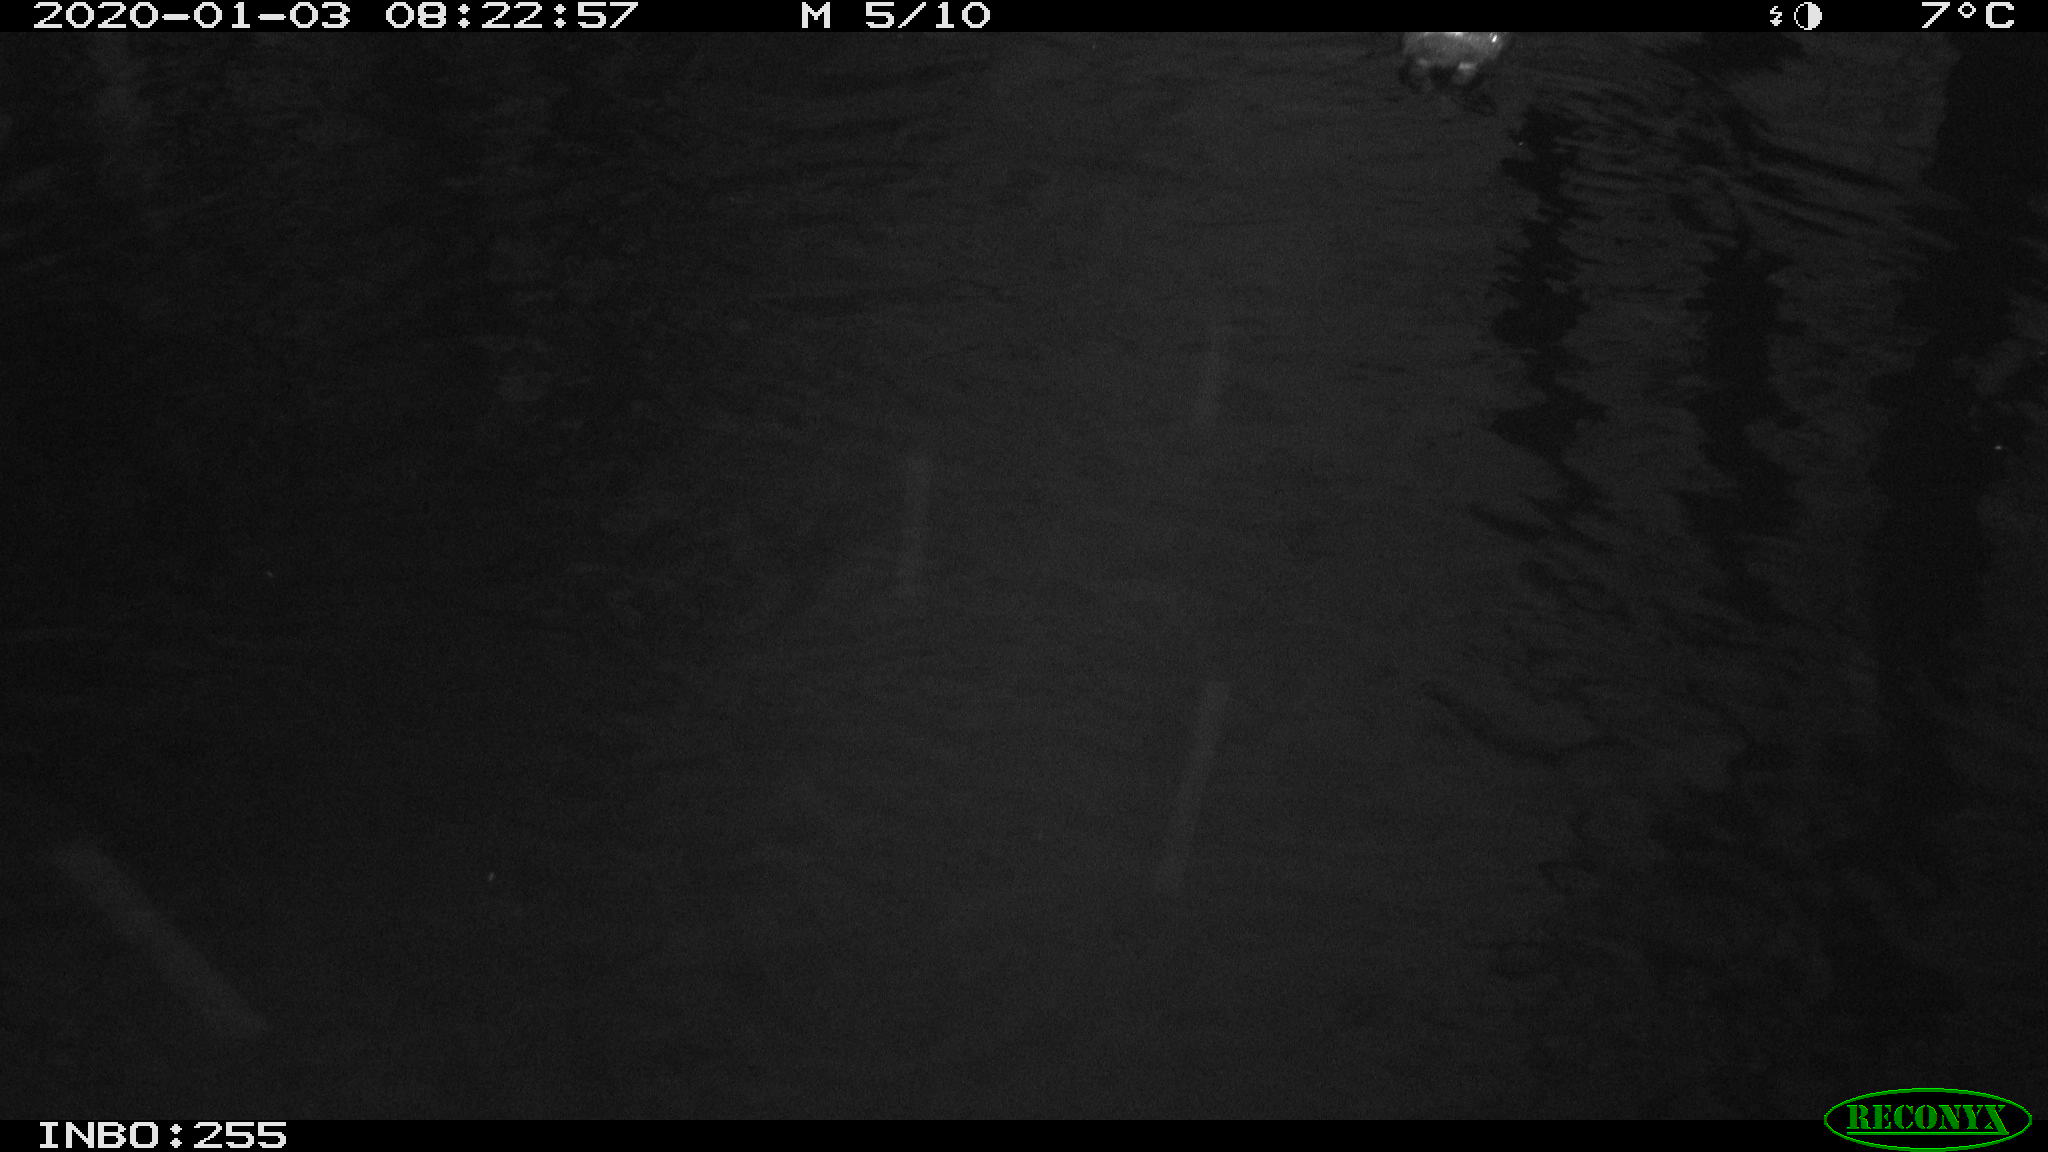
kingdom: Animalia
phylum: Chordata
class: Aves
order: Gruiformes
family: Rallidae
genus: Gallinula
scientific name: Gallinula chloropus
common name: Common moorhen
